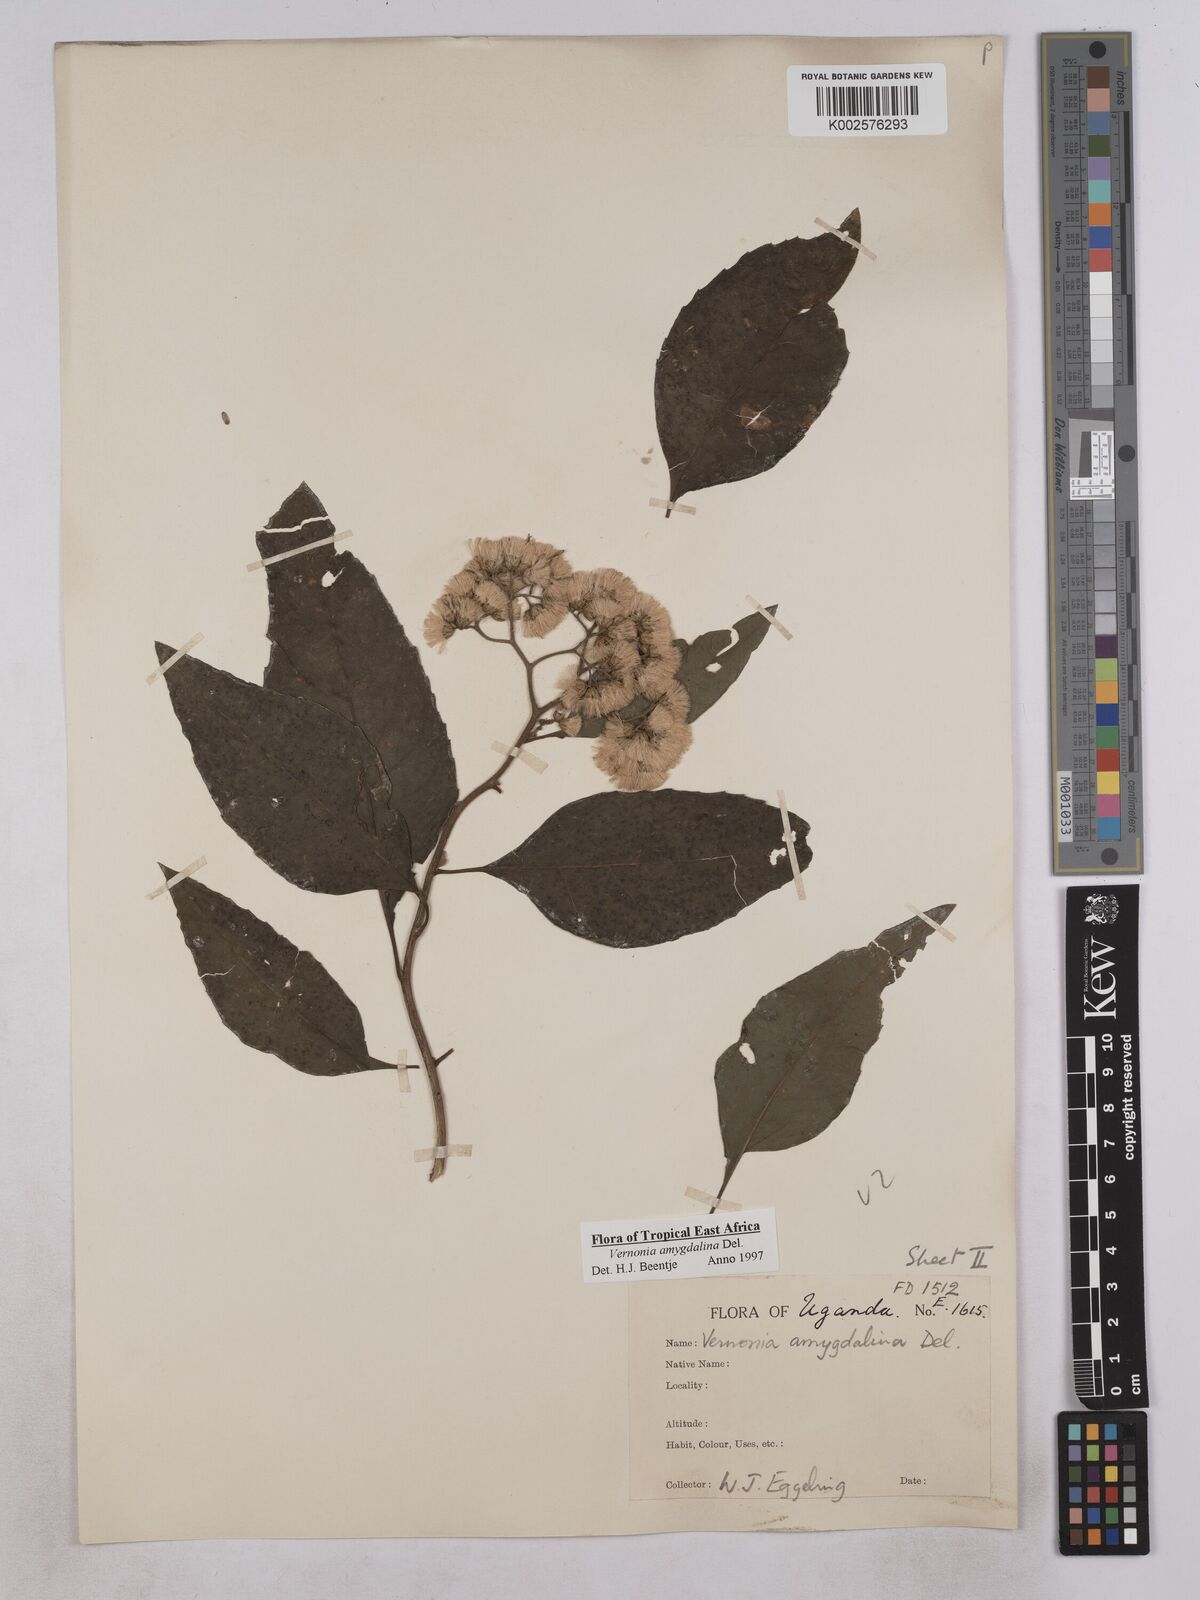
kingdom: Plantae
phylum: Tracheophyta
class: Magnoliopsida
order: Asterales
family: Asteraceae
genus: Gymnanthemum
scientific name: Gymnanthemum amygdalinum
